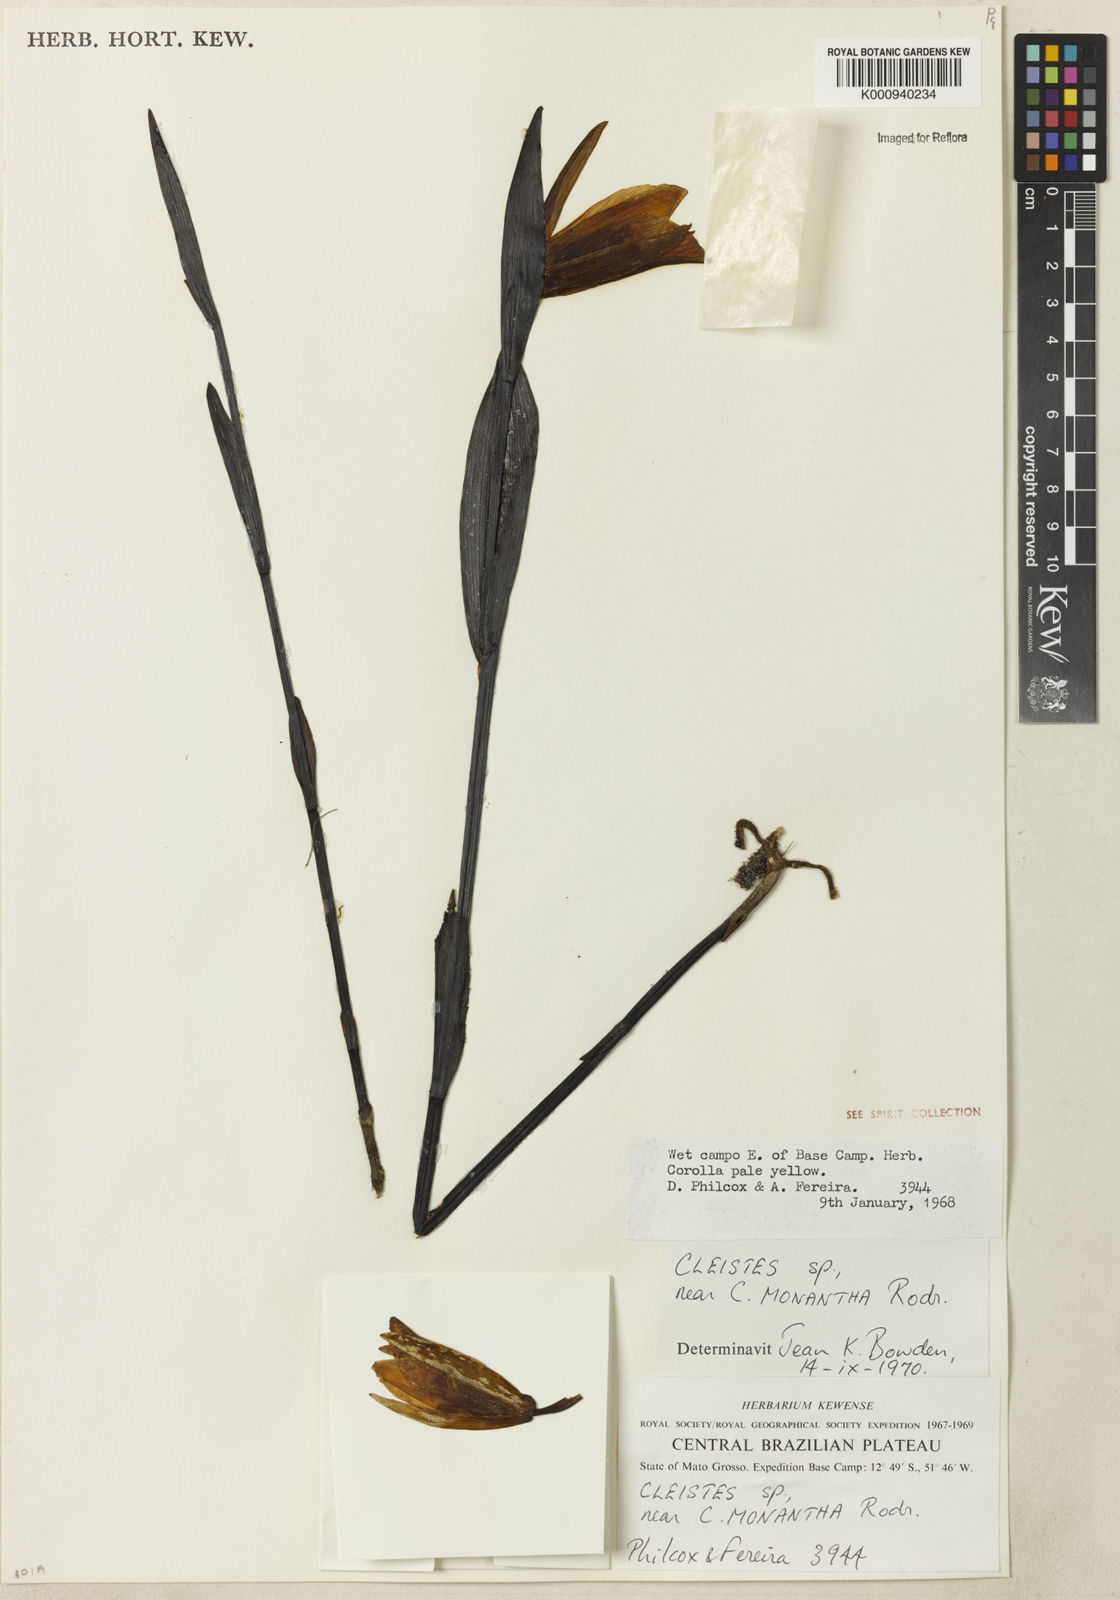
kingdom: Plantae
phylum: Tracheophyta
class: Liliopsida
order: Asparagales
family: Orchidaceae
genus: Cleistes
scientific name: Cleistes speciosa
